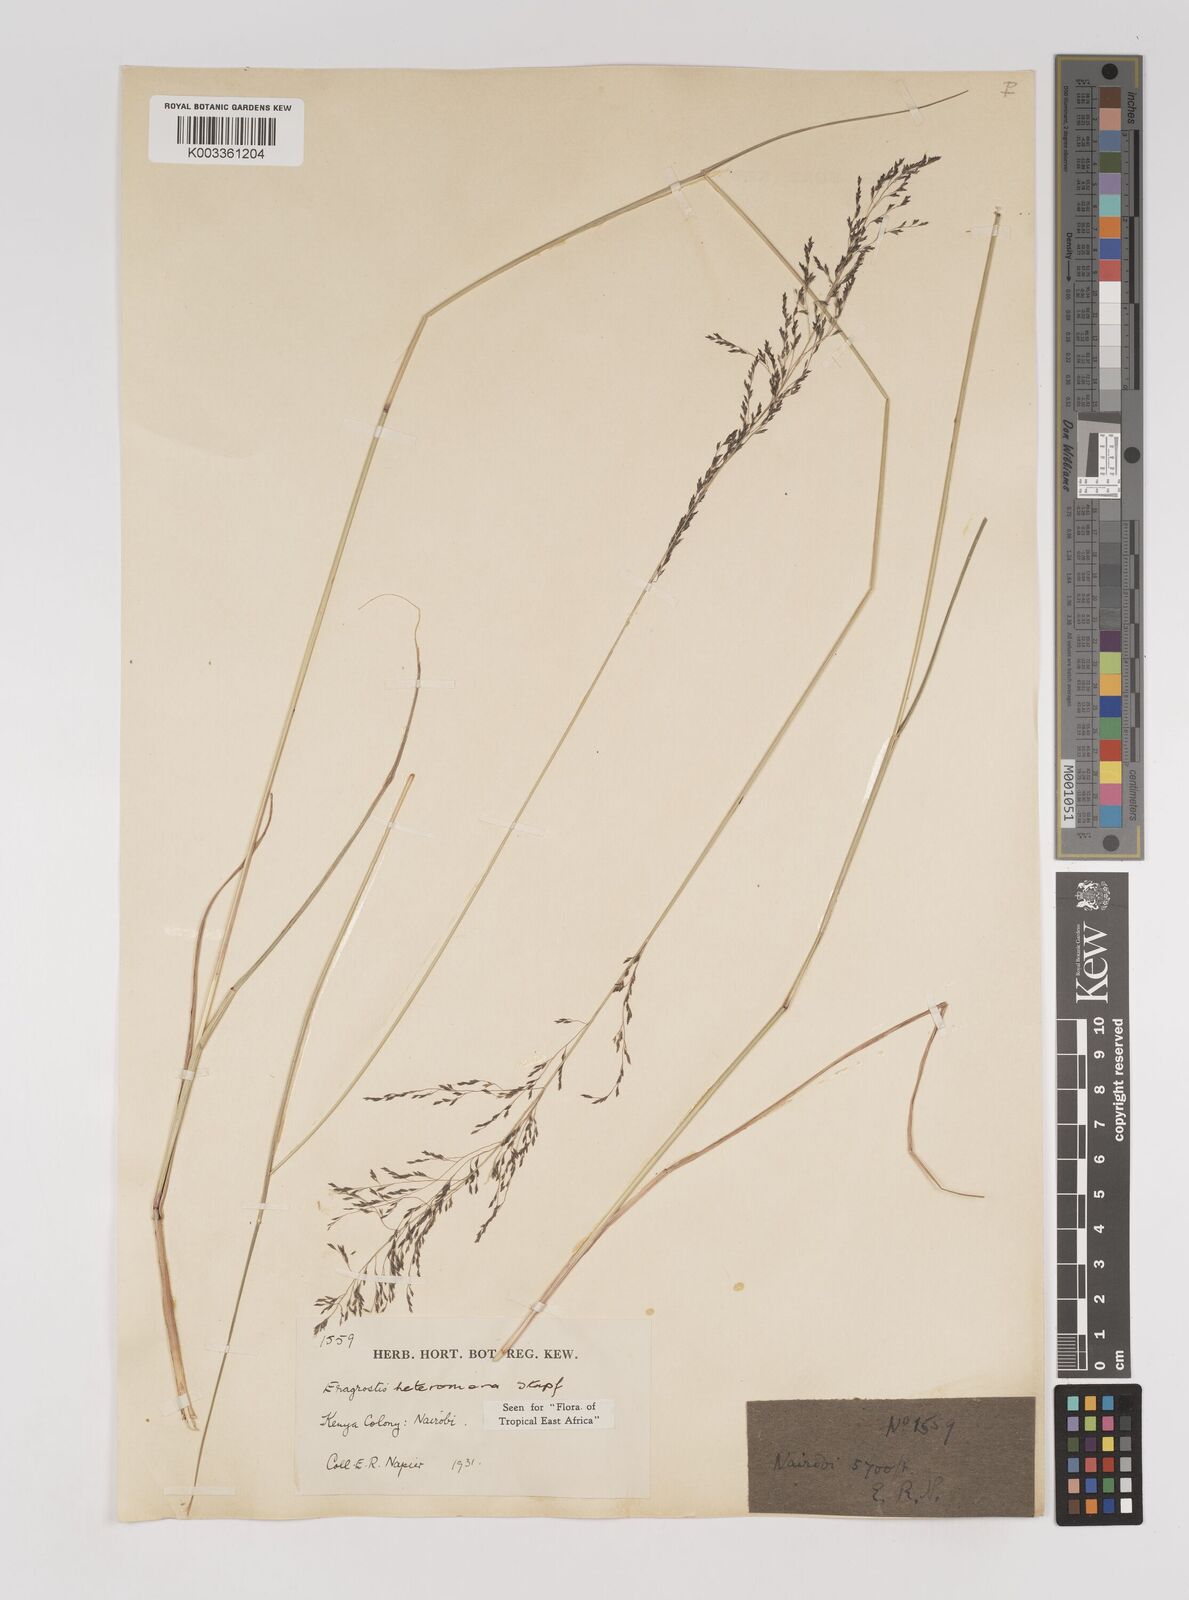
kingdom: Plantae
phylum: Tracheophyta
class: Liliopsida
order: Poales
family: Poaceae
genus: Eragrostis
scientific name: Eragrostis heteromera
